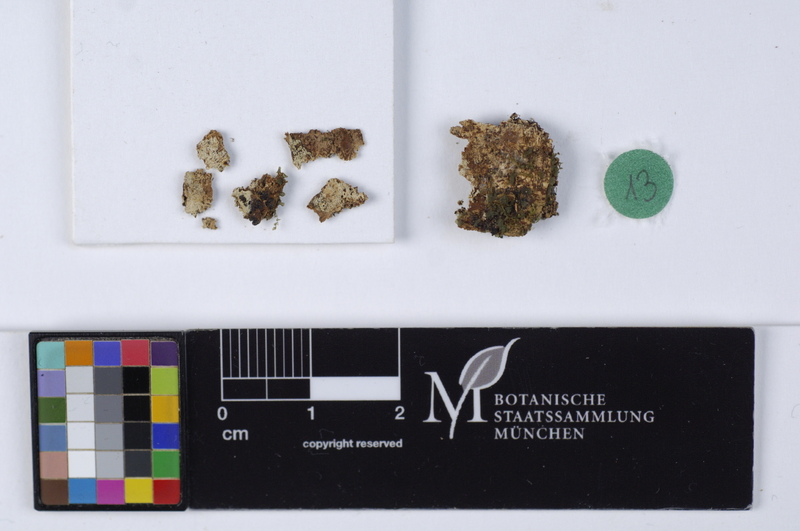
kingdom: Fungi
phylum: Basidiomycota
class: Agaricomycetes
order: Russulales
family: Russulaceae
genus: Boidinia
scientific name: Boidinia furfuracea
